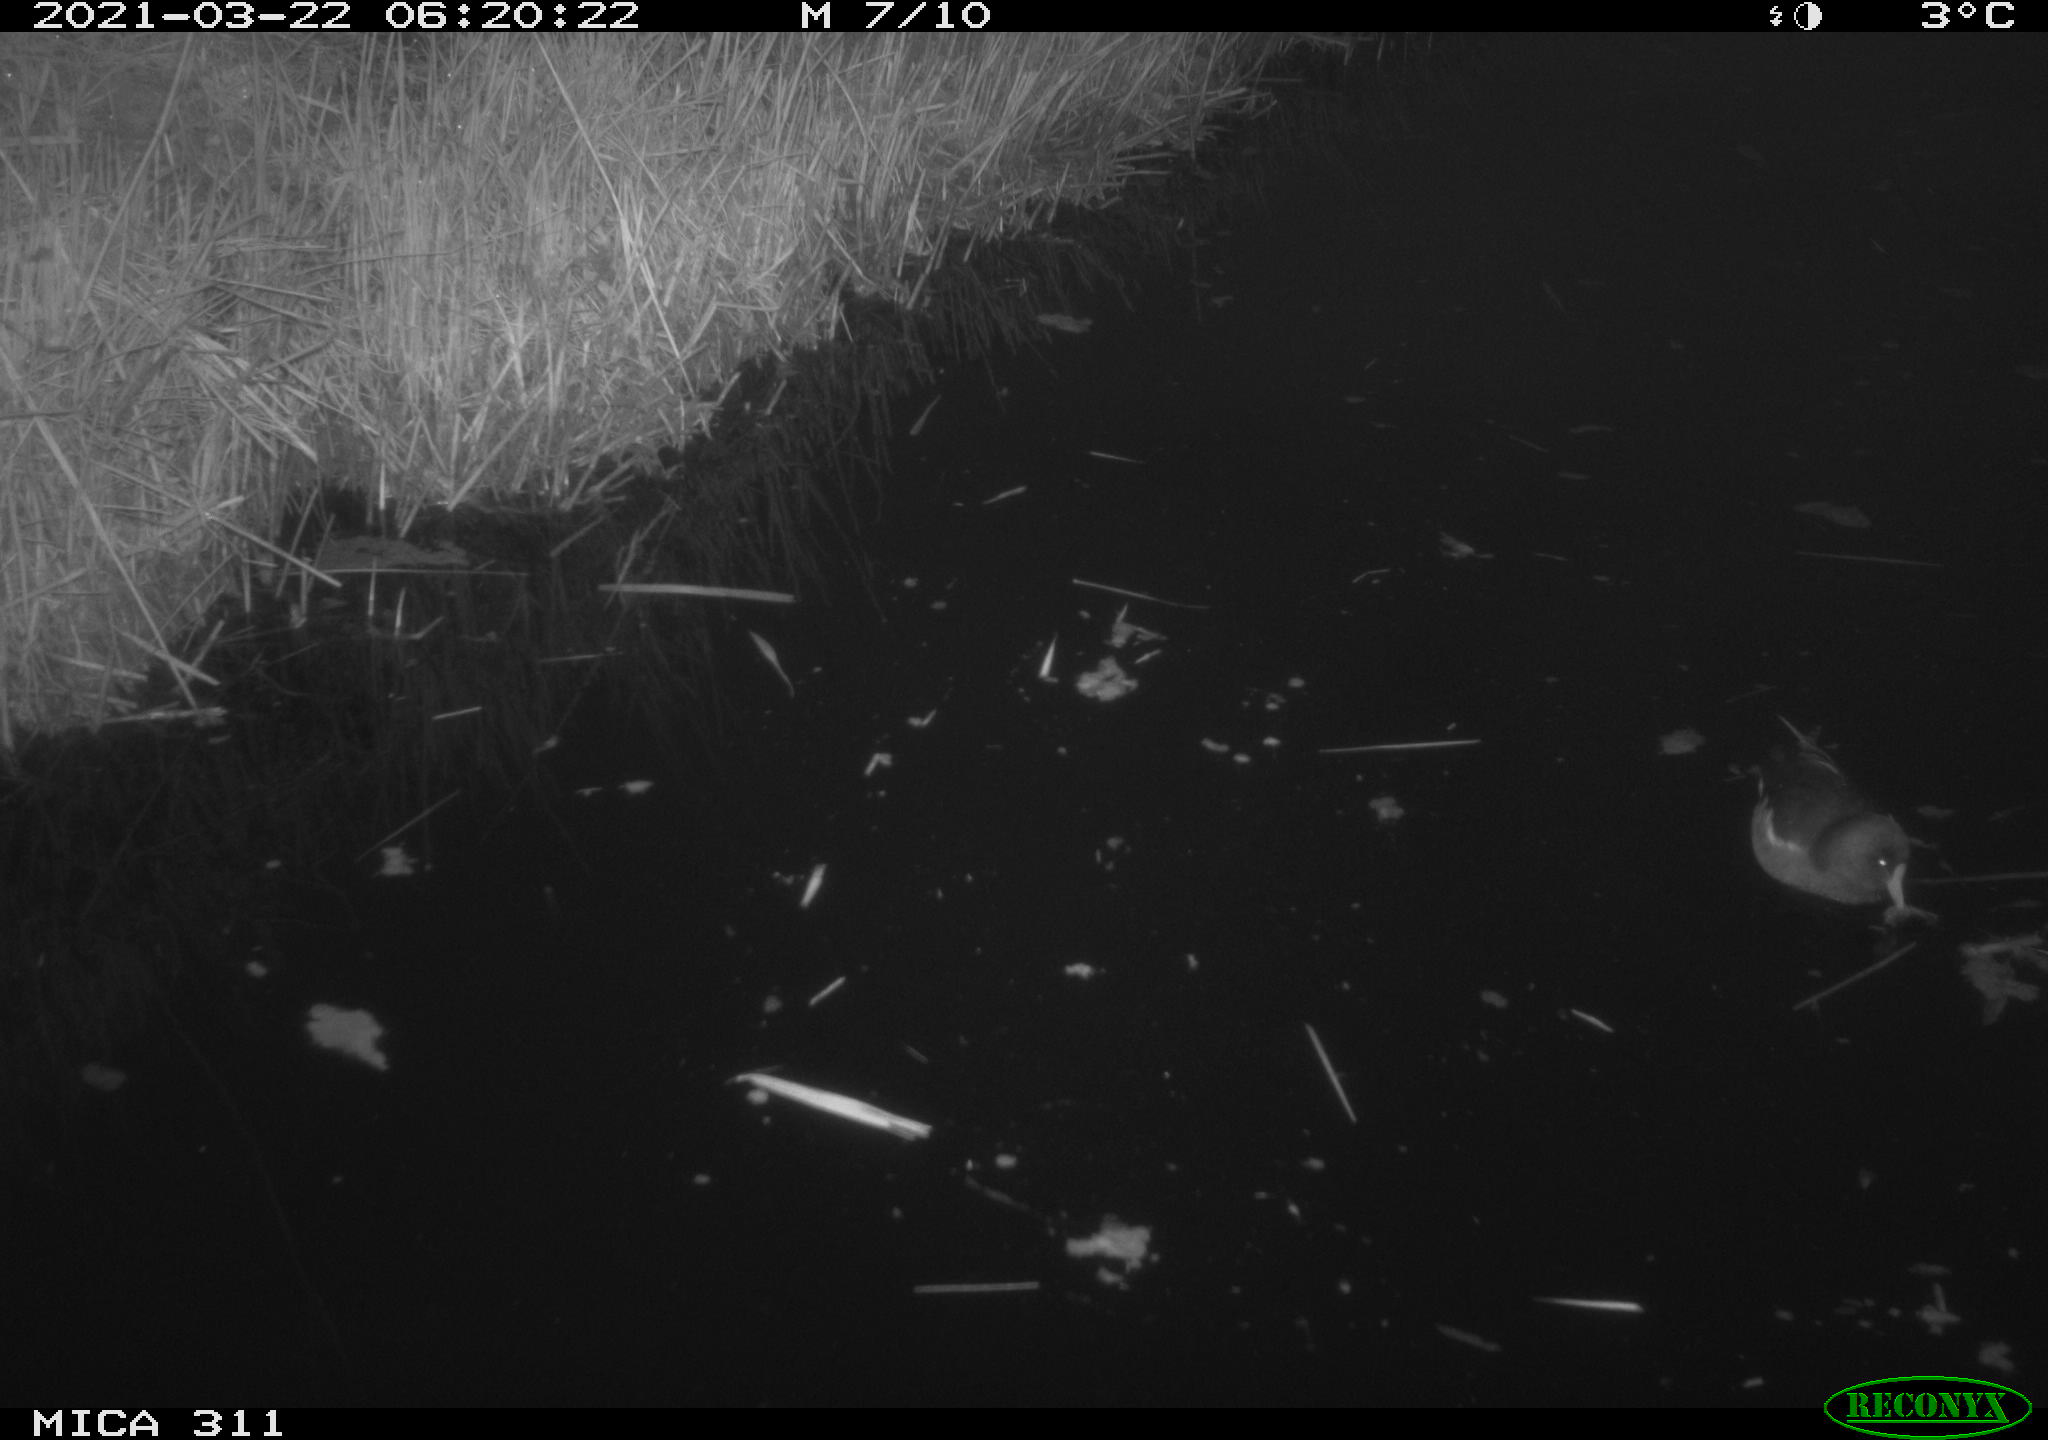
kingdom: Animalia
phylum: Chordata
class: Aves
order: Gruiformes
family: Rallidae
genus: Gallinula
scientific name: Gallinula chloropus
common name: Common moorhen
